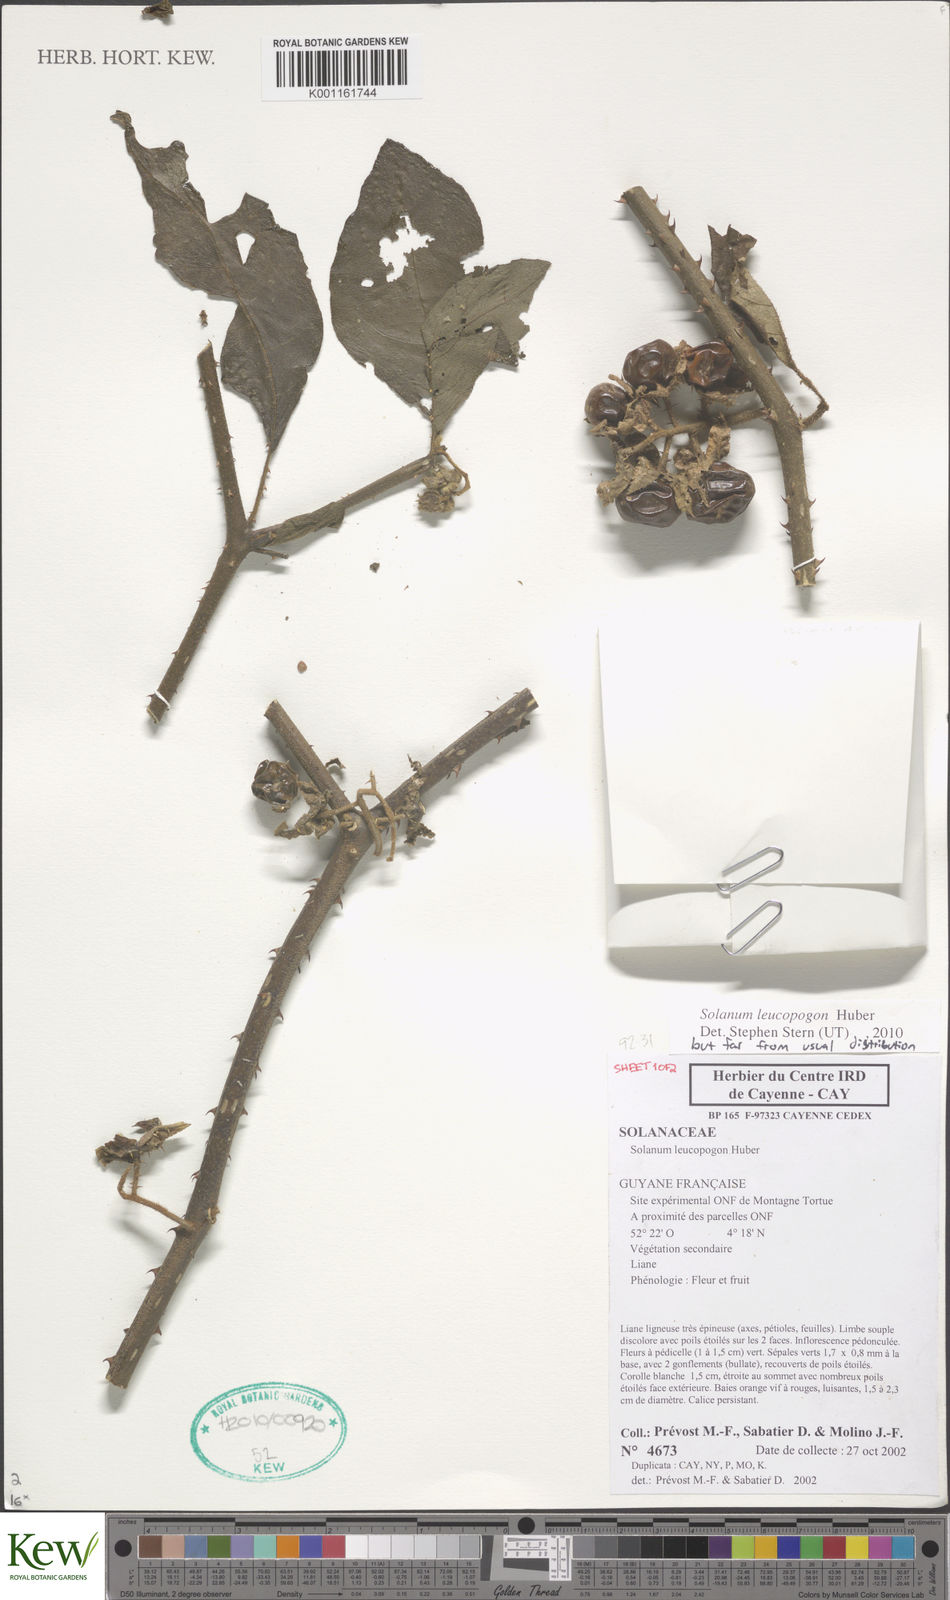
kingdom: Plantae
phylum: Tracheophyta
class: Magnoliopsida
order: Solanales
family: Solanaceae
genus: Solanum
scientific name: Solanum leucopogon
